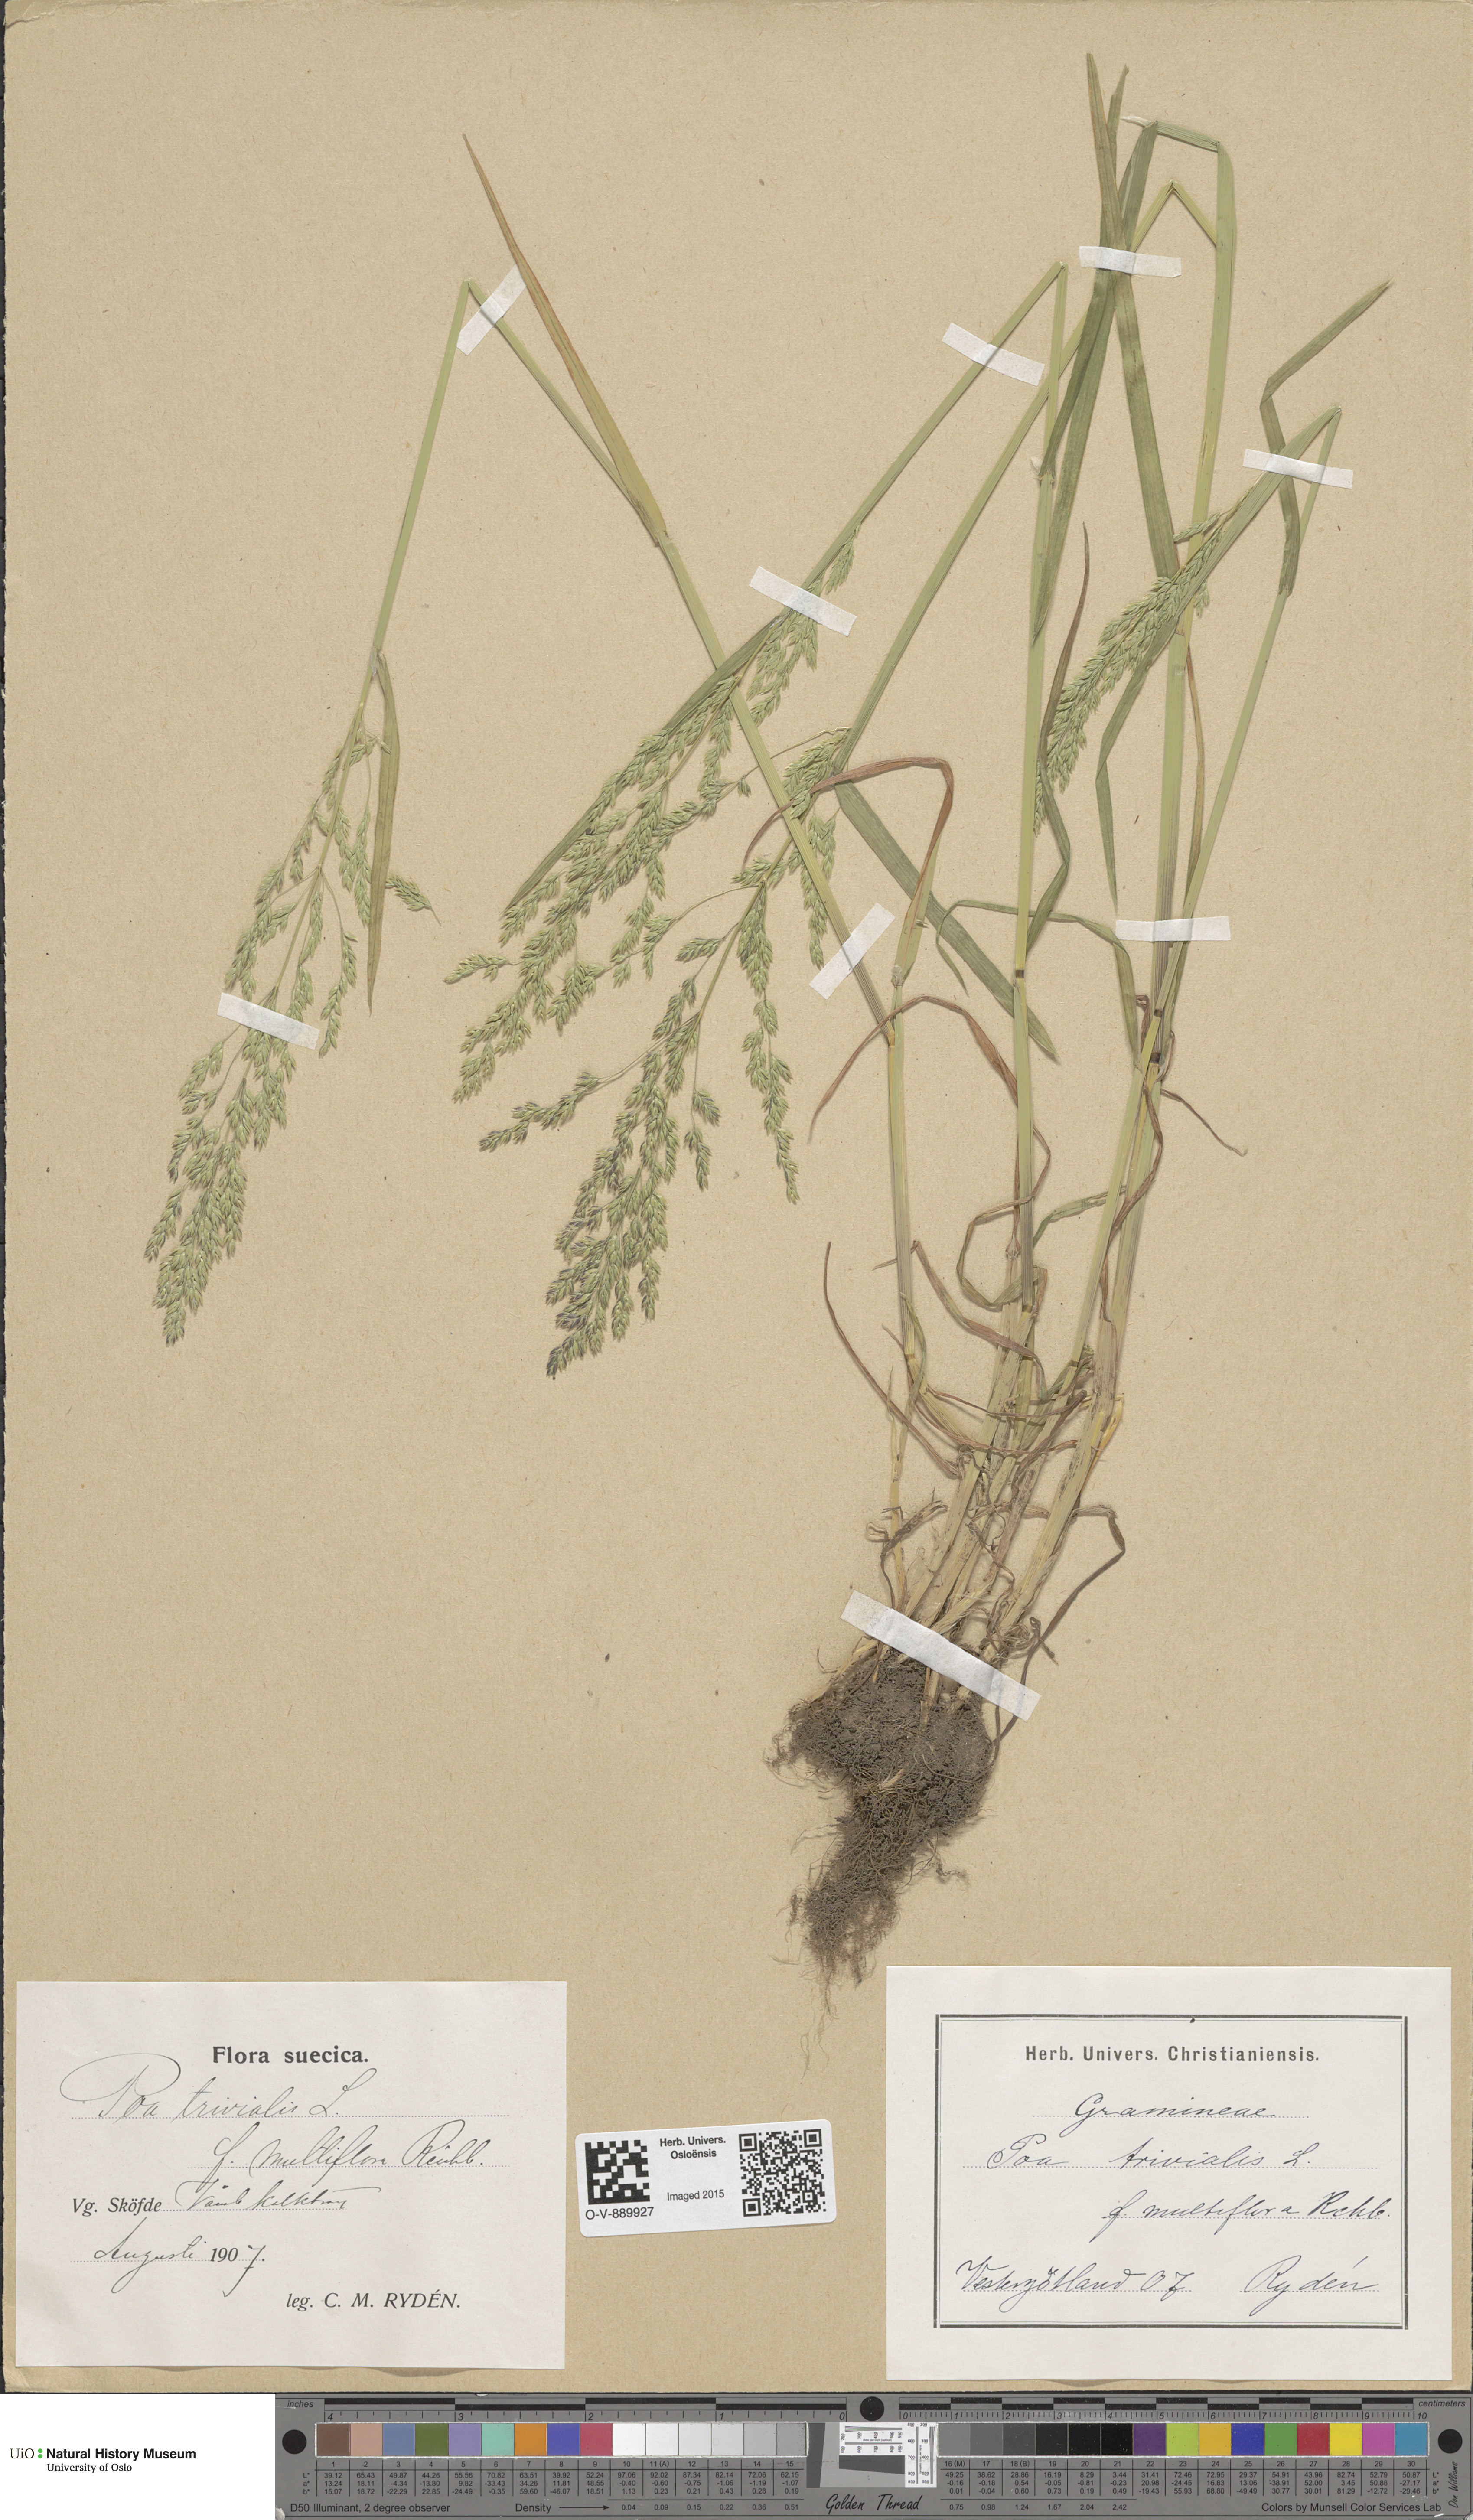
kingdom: Plantae
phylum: Tracheophyta
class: Liliopsida
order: Poales
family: Poaceae
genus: Poa
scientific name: Poa trivialis
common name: Rough bluegrass
